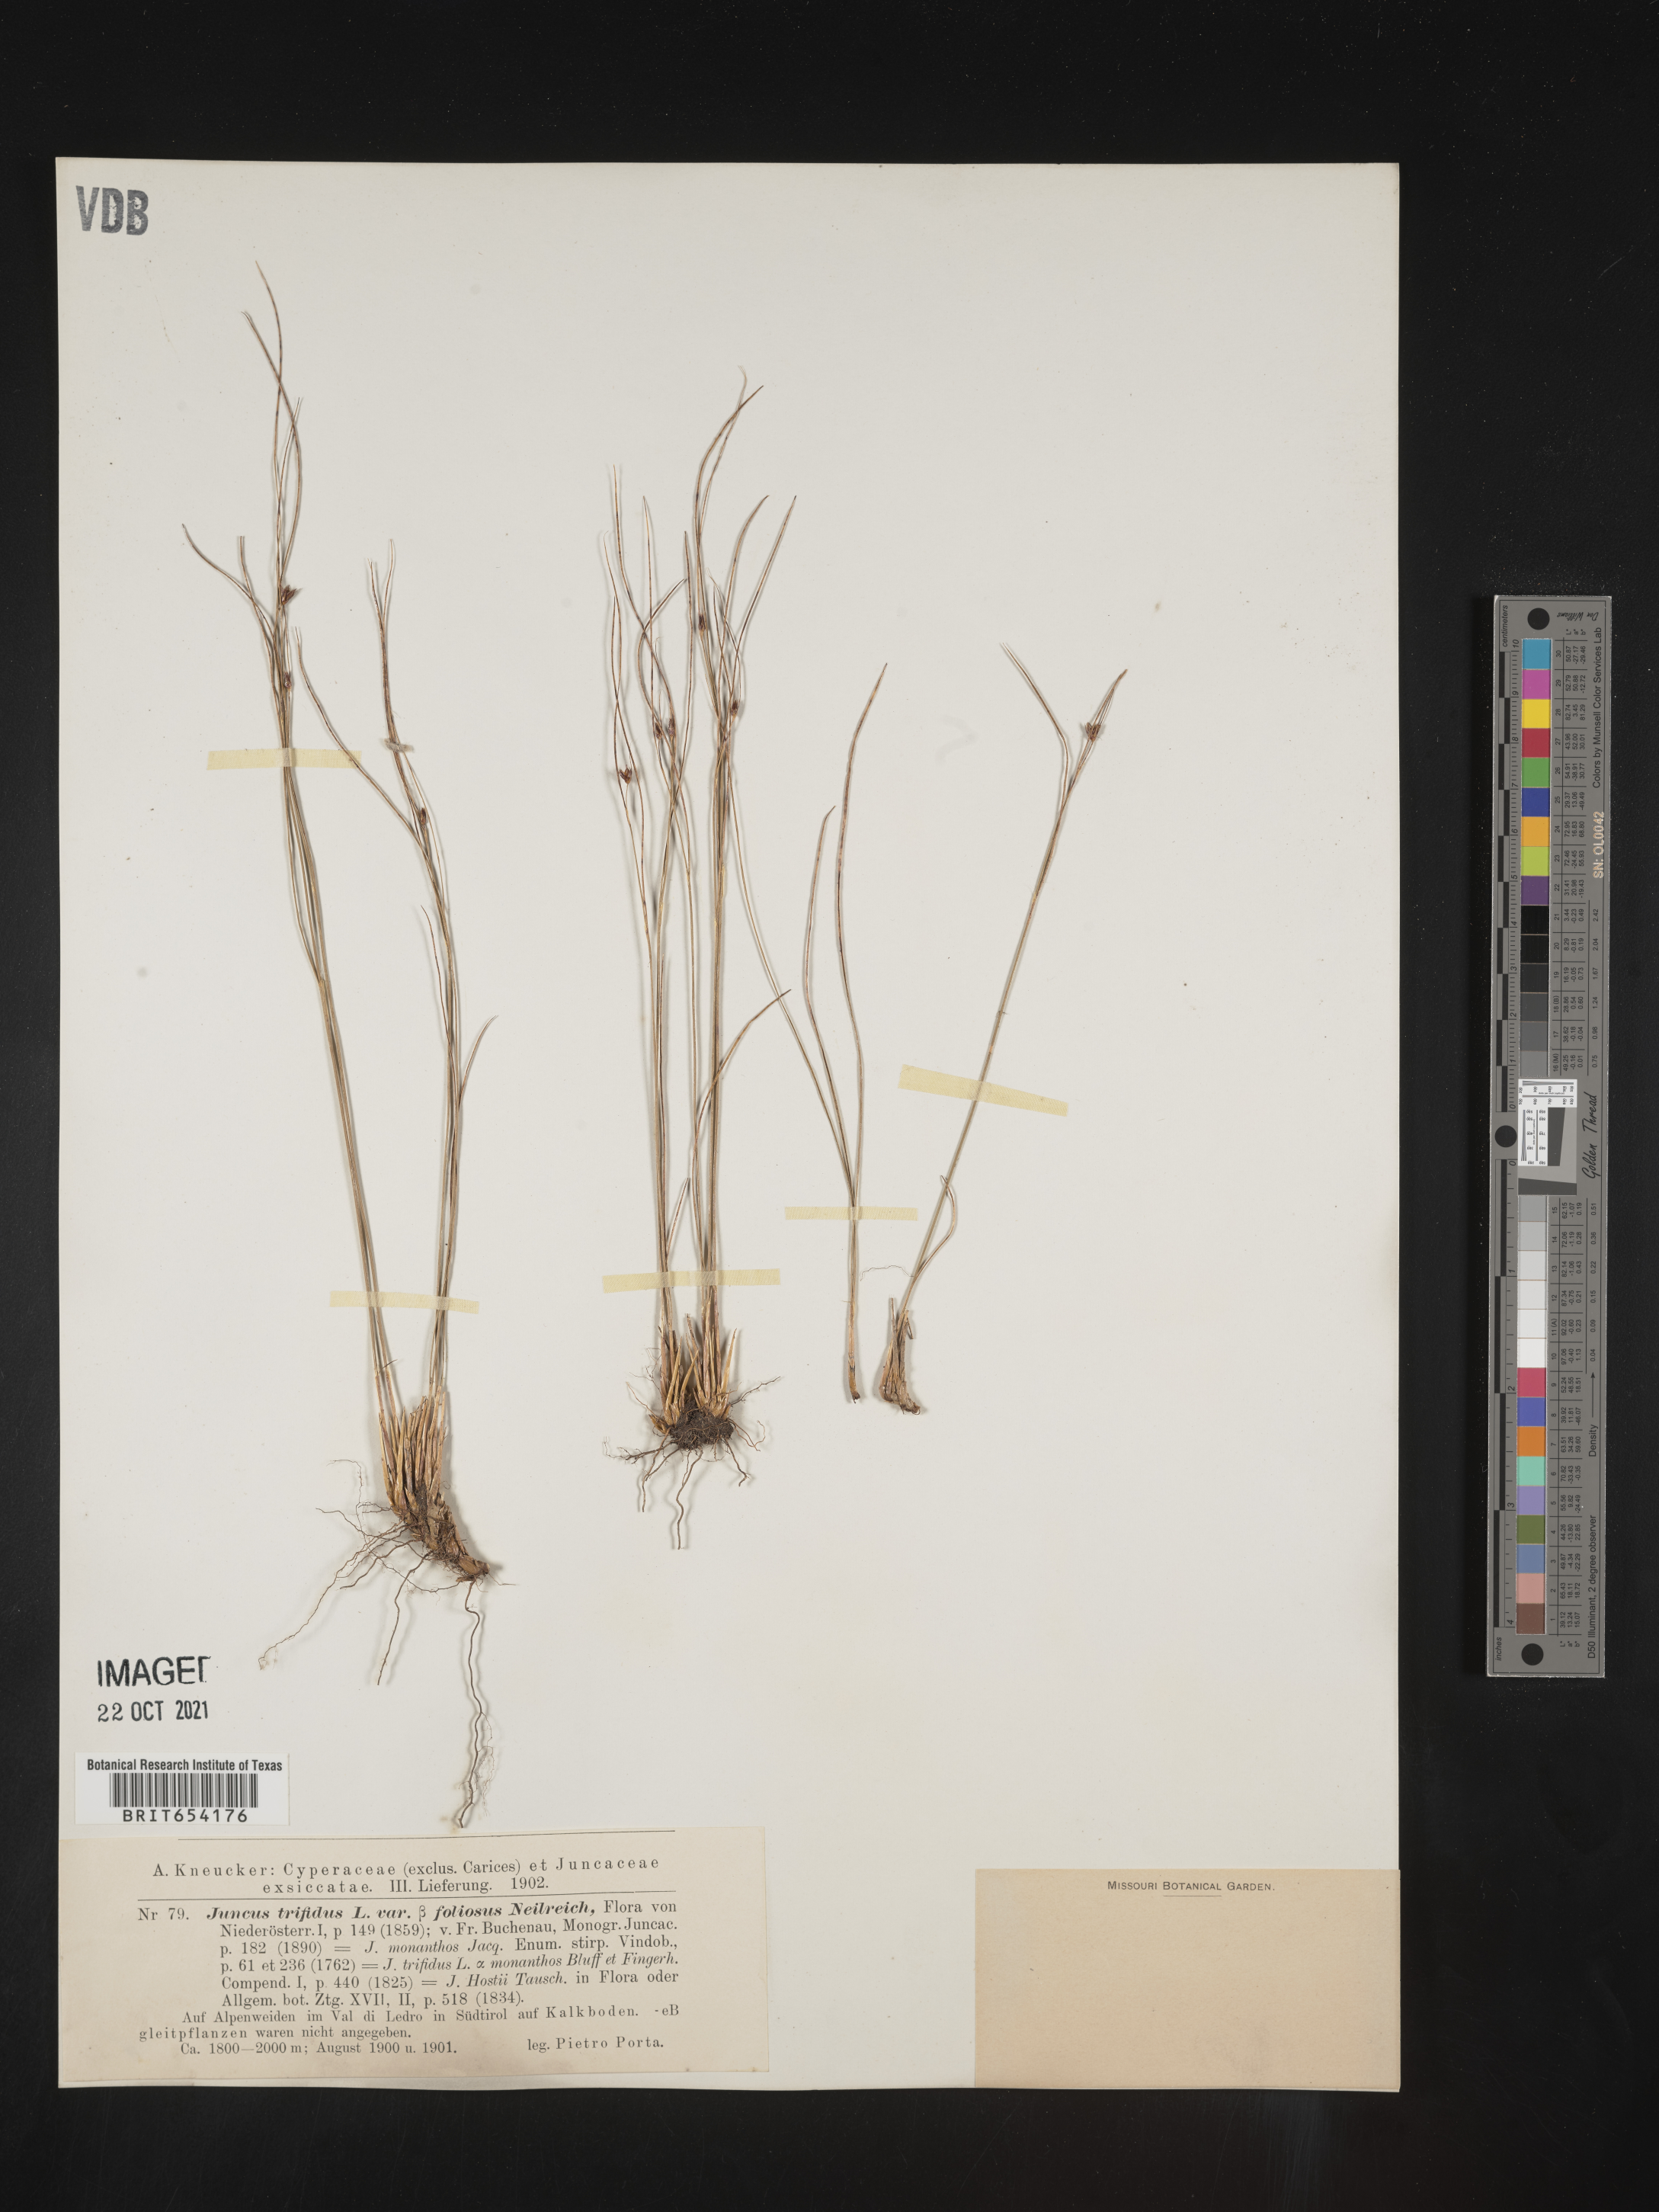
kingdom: Plantae
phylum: Tracheophyta
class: Liliopsida
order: Poales
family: Juncaceae
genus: Juncus
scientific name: Juncus
